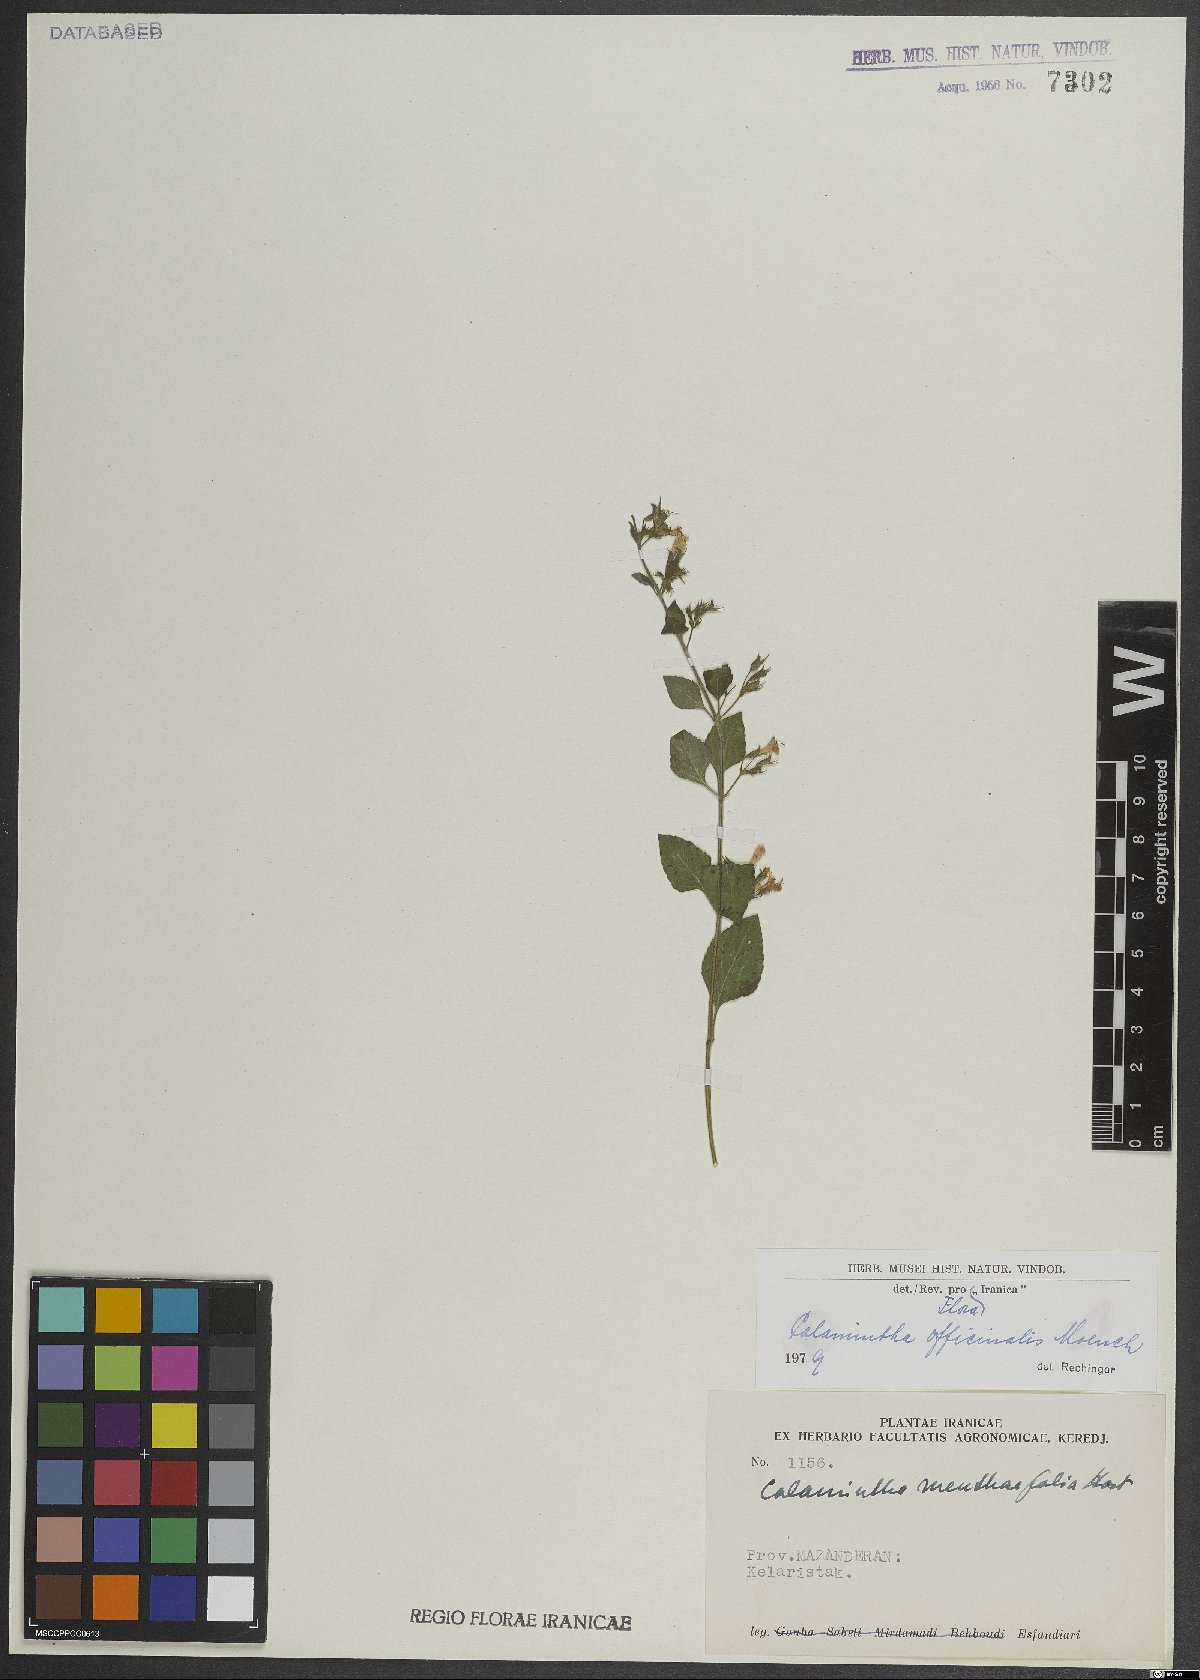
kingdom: Plantae
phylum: Tracheophyta
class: Magnoliopsida
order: Lamiales
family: Lamiaceae
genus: Clinopodium
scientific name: Clinopodium nepeta
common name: Lesser calamint
